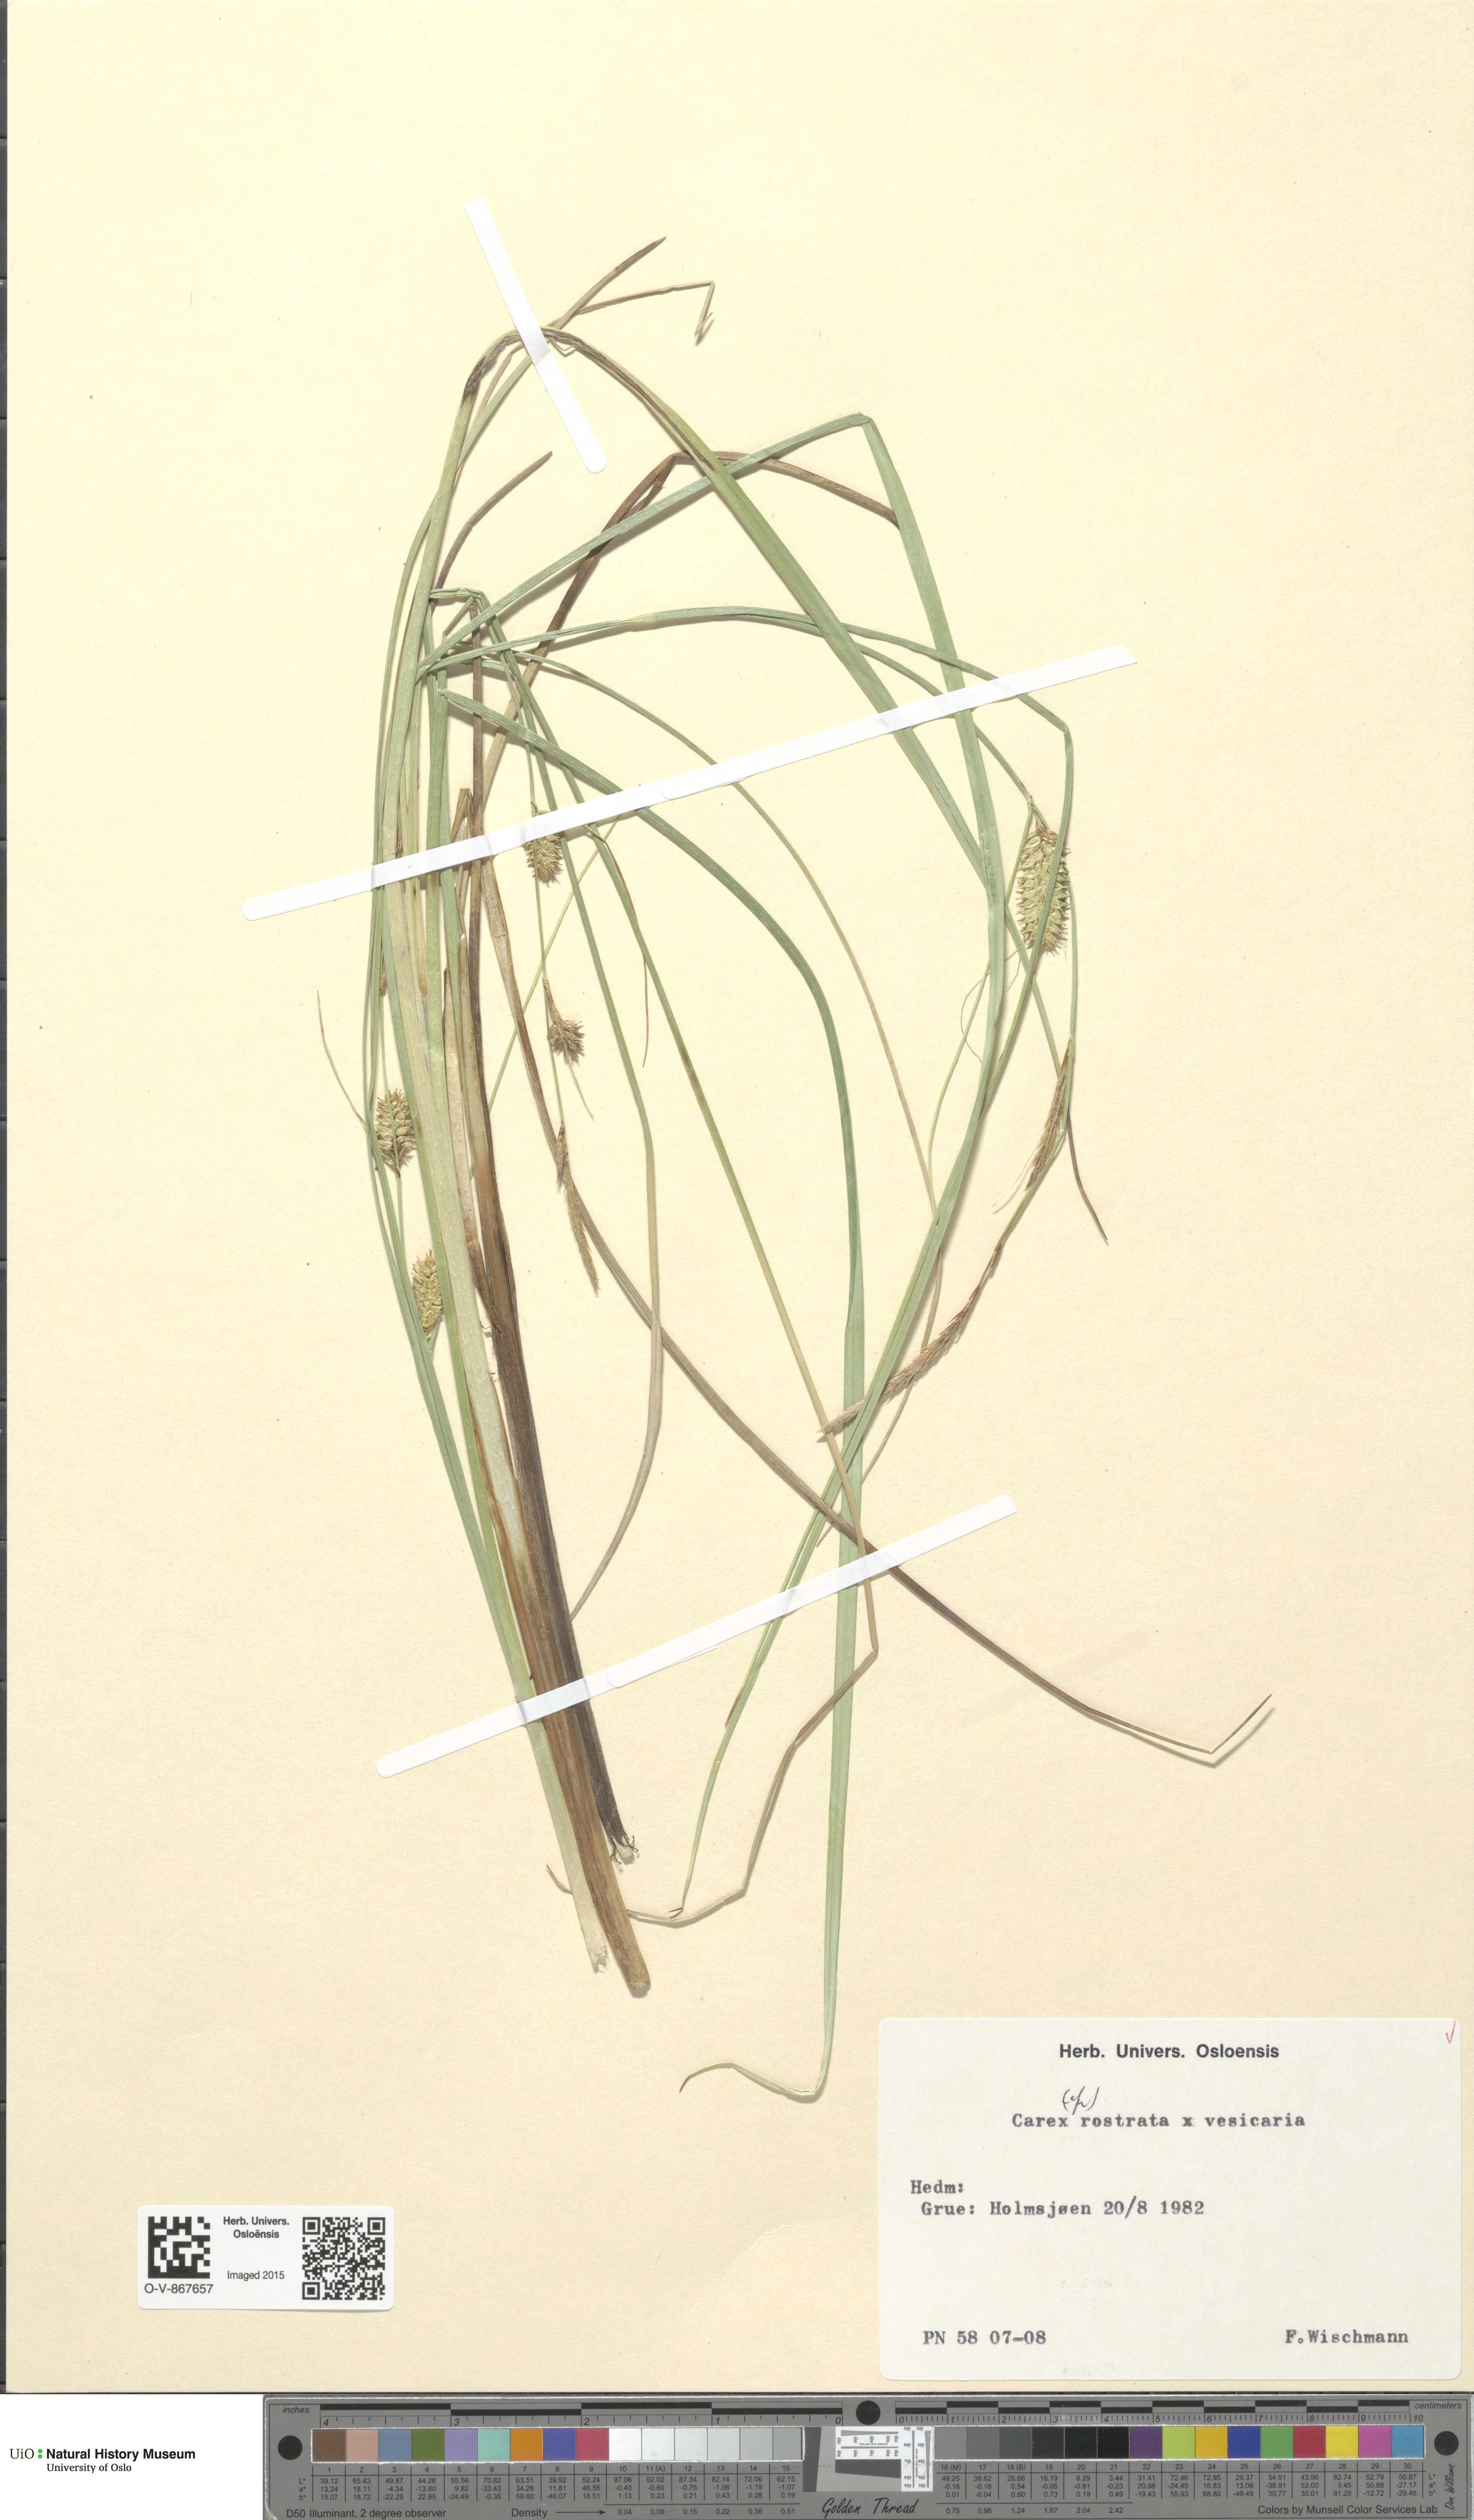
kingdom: Plantae
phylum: Tracheophyta
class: Liliopsida
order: Poales
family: Cyperaceae
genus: Carex
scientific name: Carex
